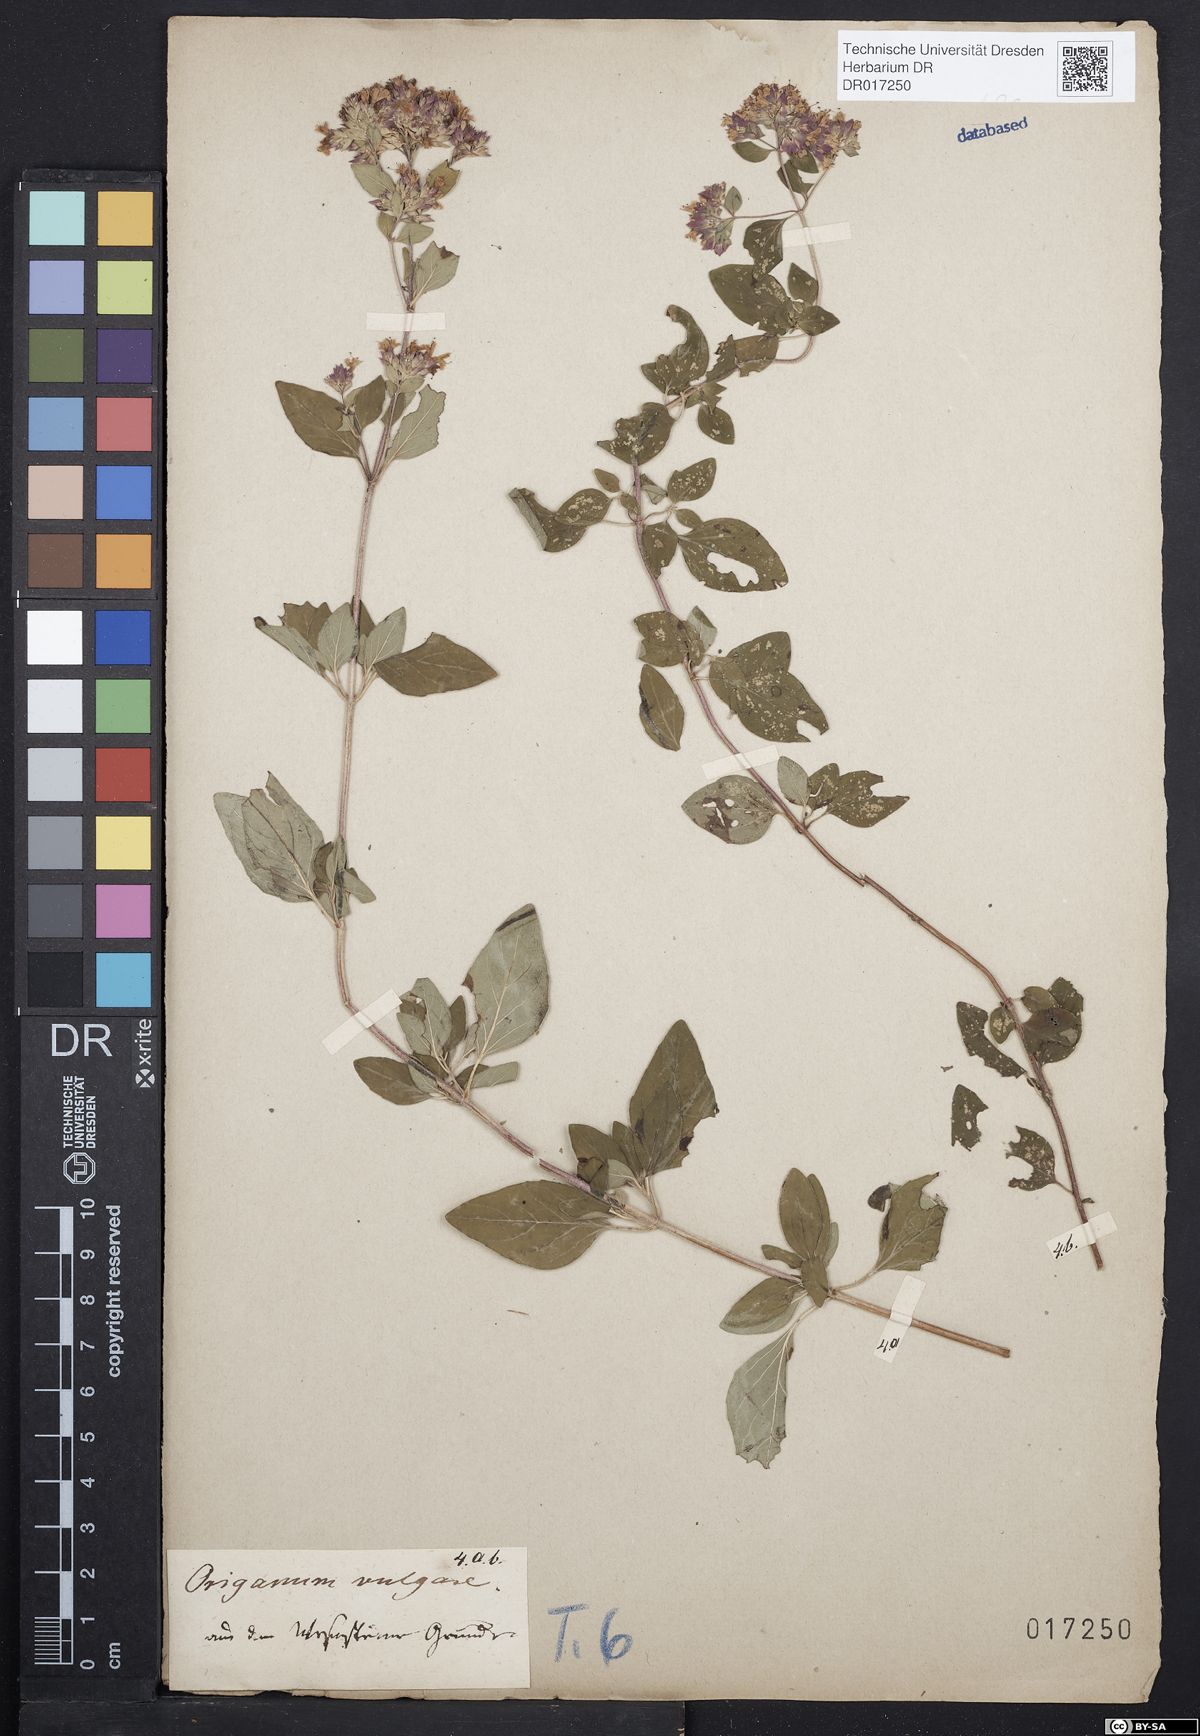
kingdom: Plantae
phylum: Tracheophyta
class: Magnoliopsida
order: Lamiales
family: Lamiaceae
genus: Origanum
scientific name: Origanum vulgare
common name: Wild marjoram
